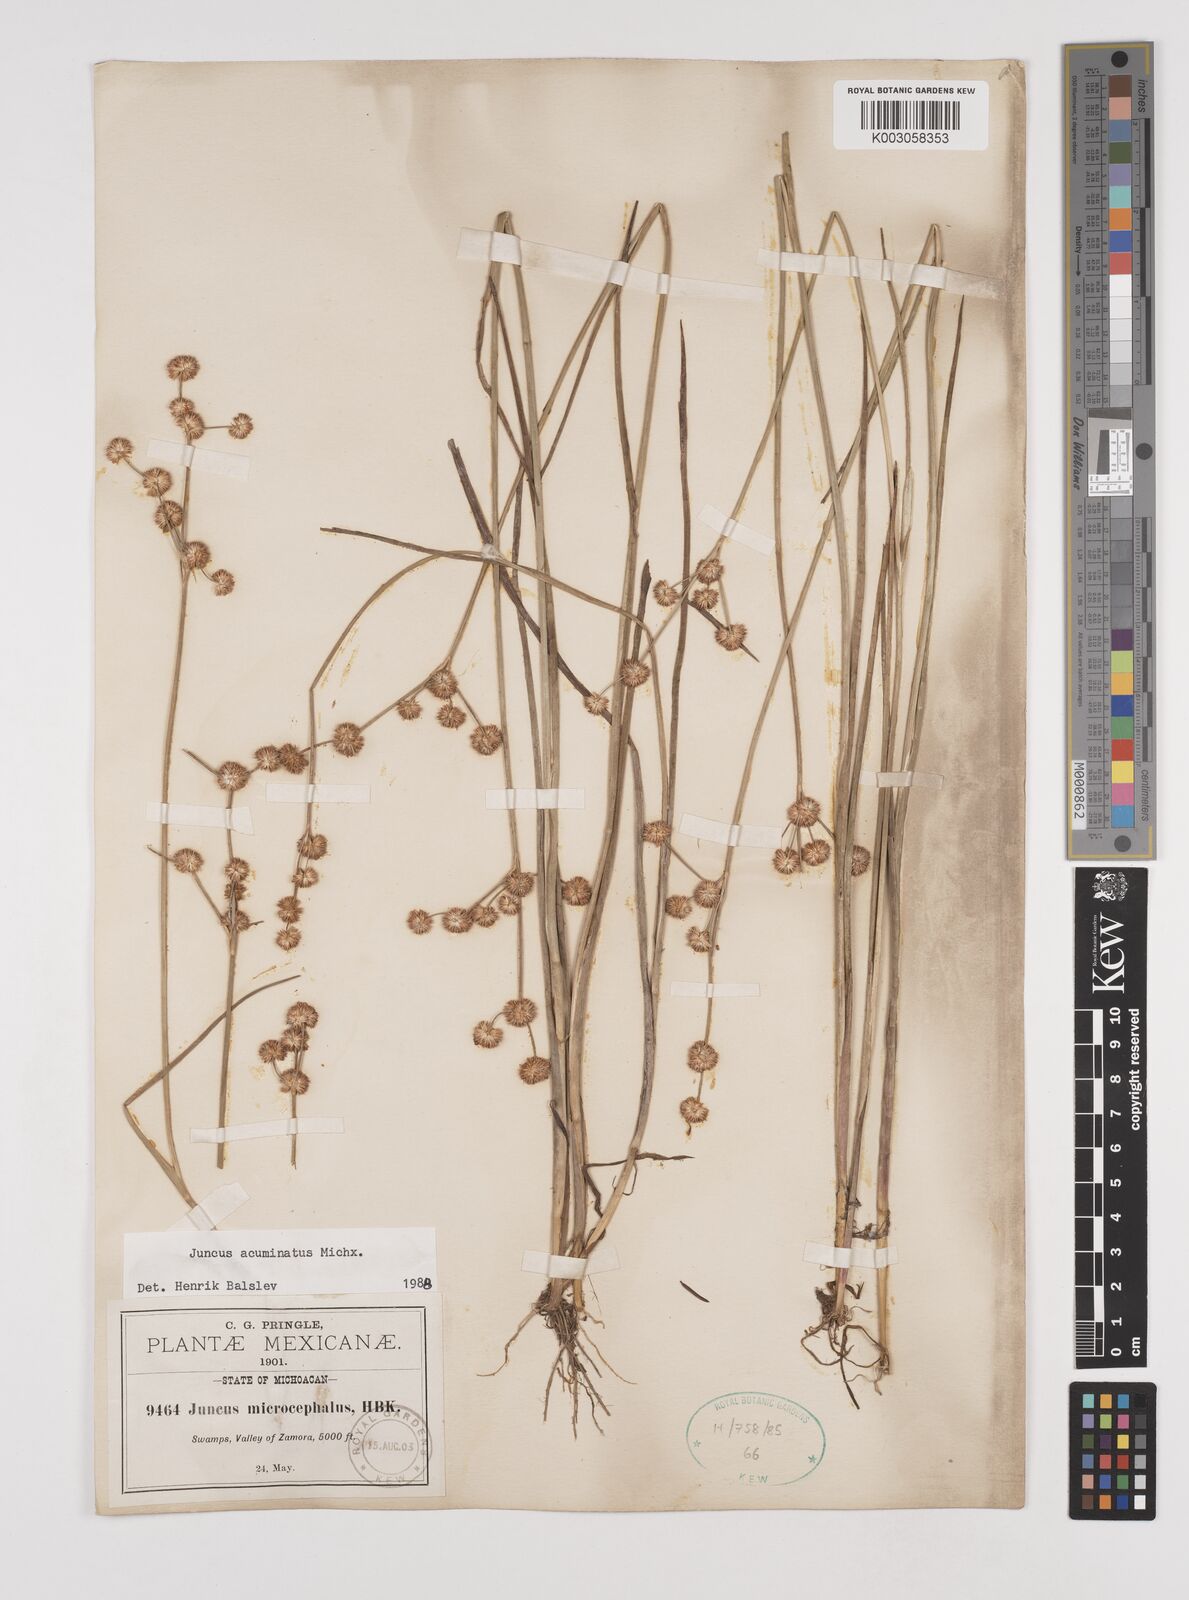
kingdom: Plantae
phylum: Tracheophyta
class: Liliopsida
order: Poales
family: Juncaceae
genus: Juncus
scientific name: Juncus acuminatus
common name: Knotty-leaved rush
